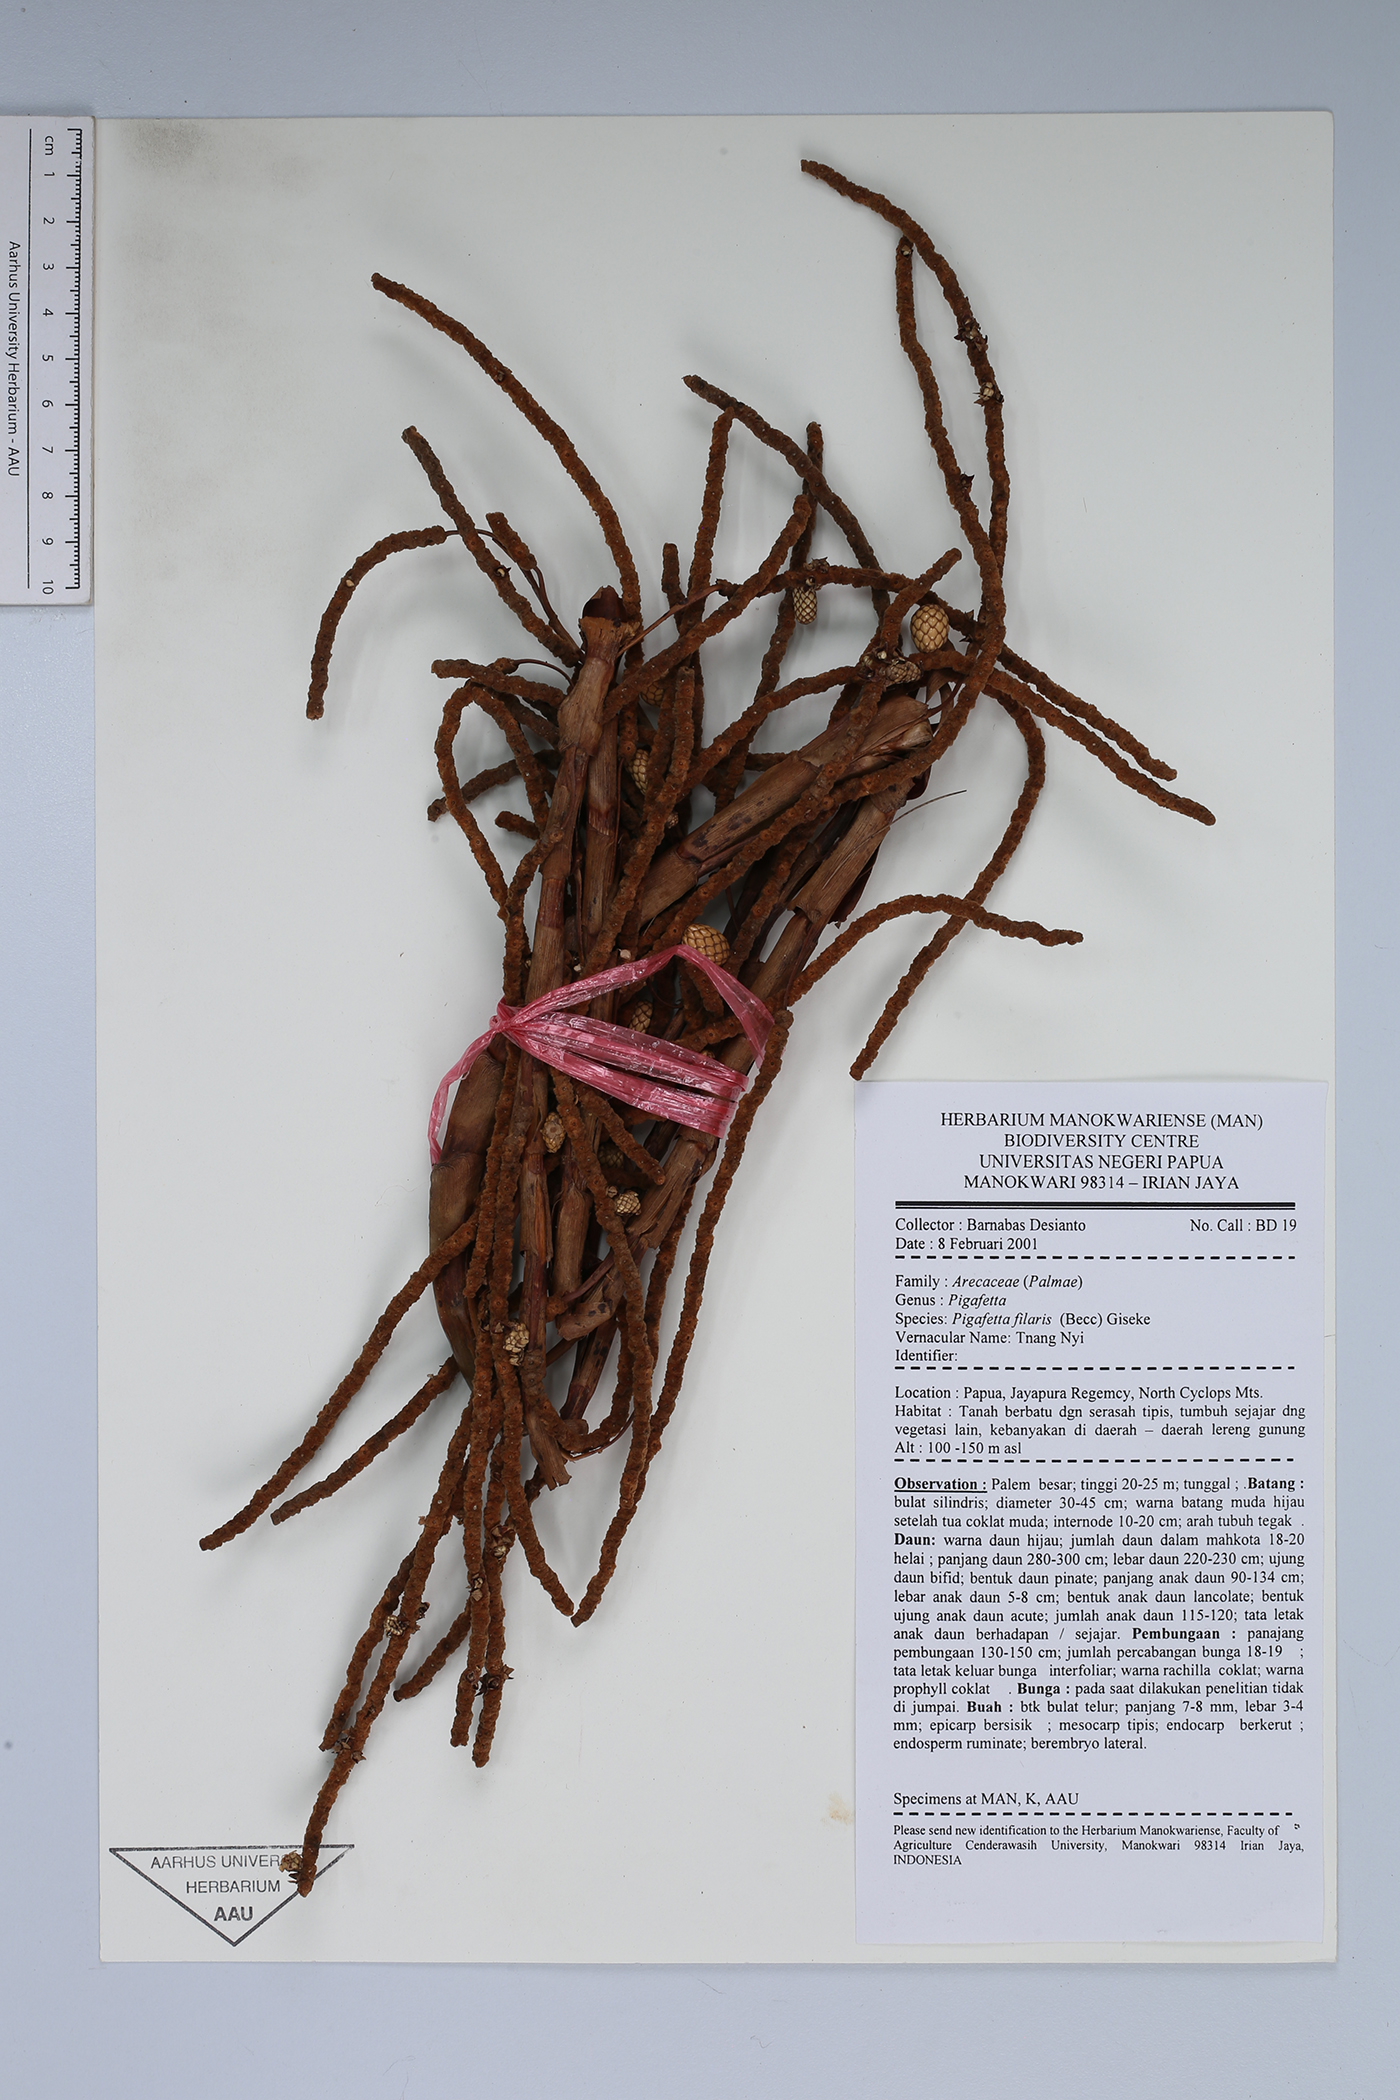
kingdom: Plantae
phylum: Tracheophyta
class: Liliopsida
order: Arecales
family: Arecaceae
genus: Pigafetta
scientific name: Pigafetta filaris
